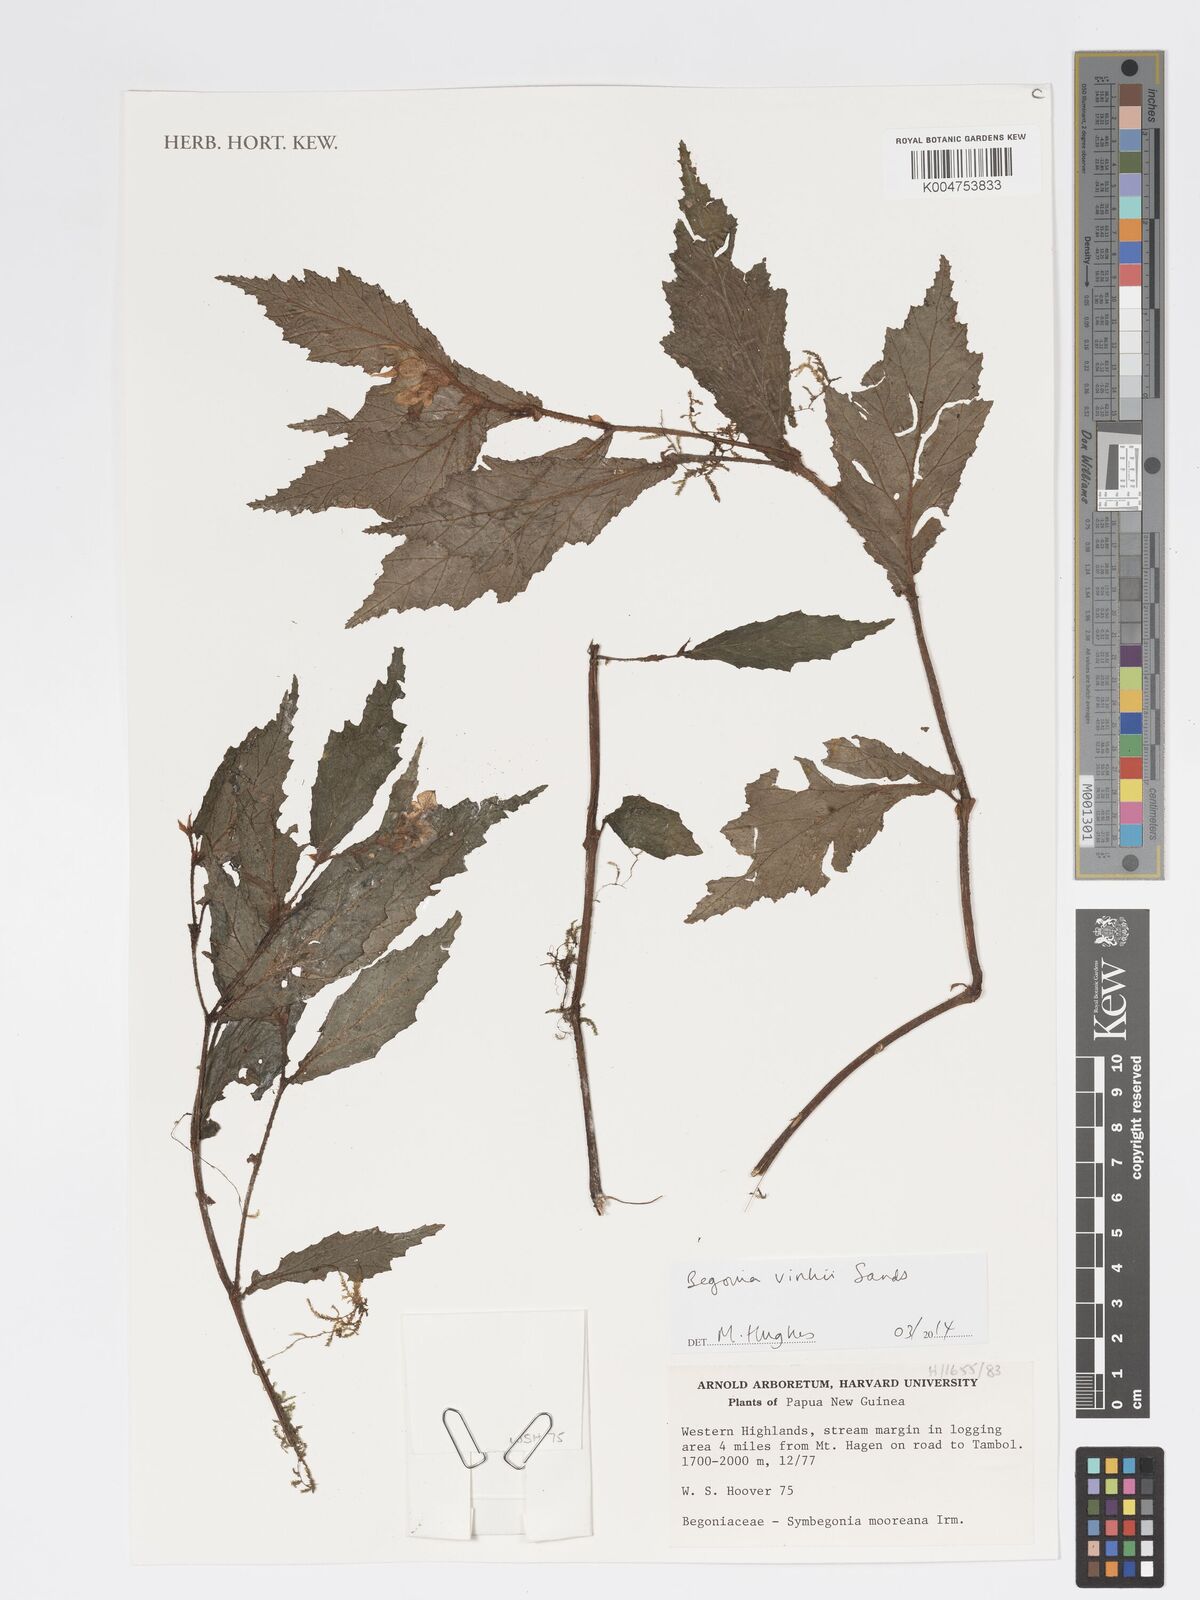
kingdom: Plantae
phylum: Tracheophyta
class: Magnoliopsida
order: Cucurbitales
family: Begoniaceae
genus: Begonia
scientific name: Begonia vinkii
